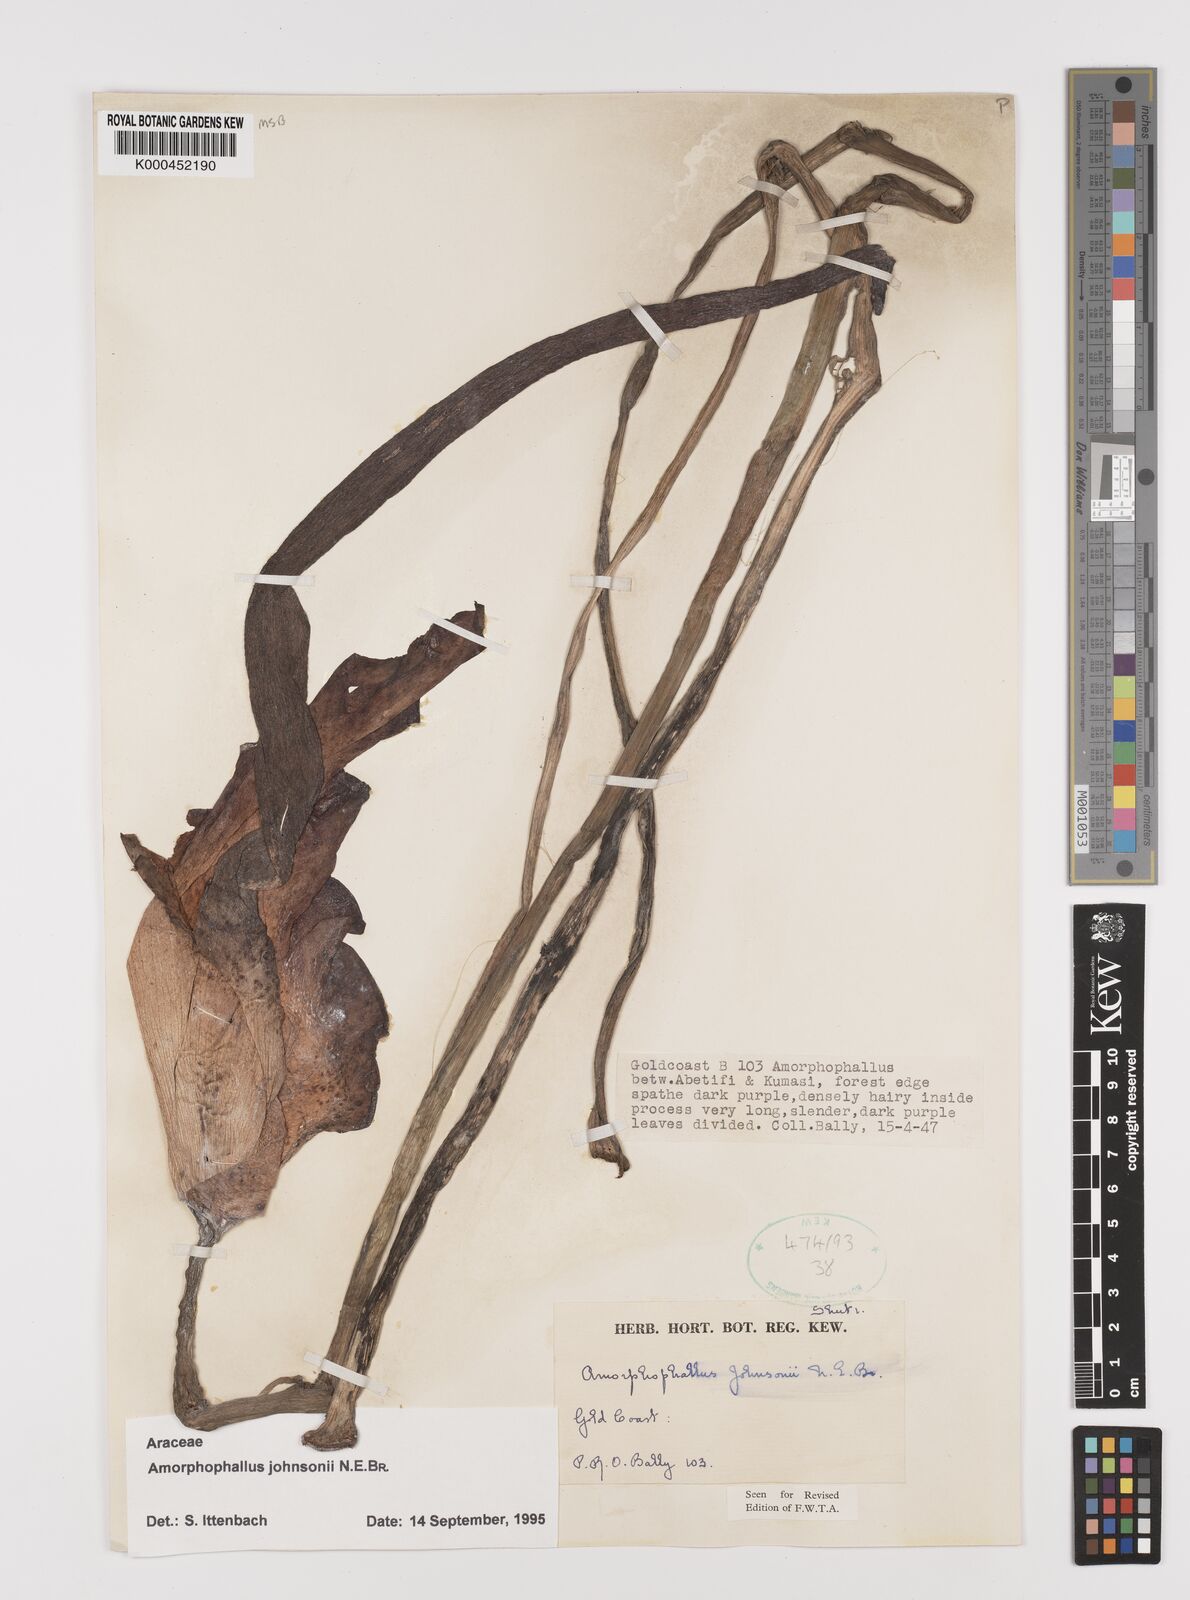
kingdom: Plantae
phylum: Tracheophyta
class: Liliopsida
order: Alismatales
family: Araceae
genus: Amorphophallus
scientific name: Amorphophallus johnsonii
